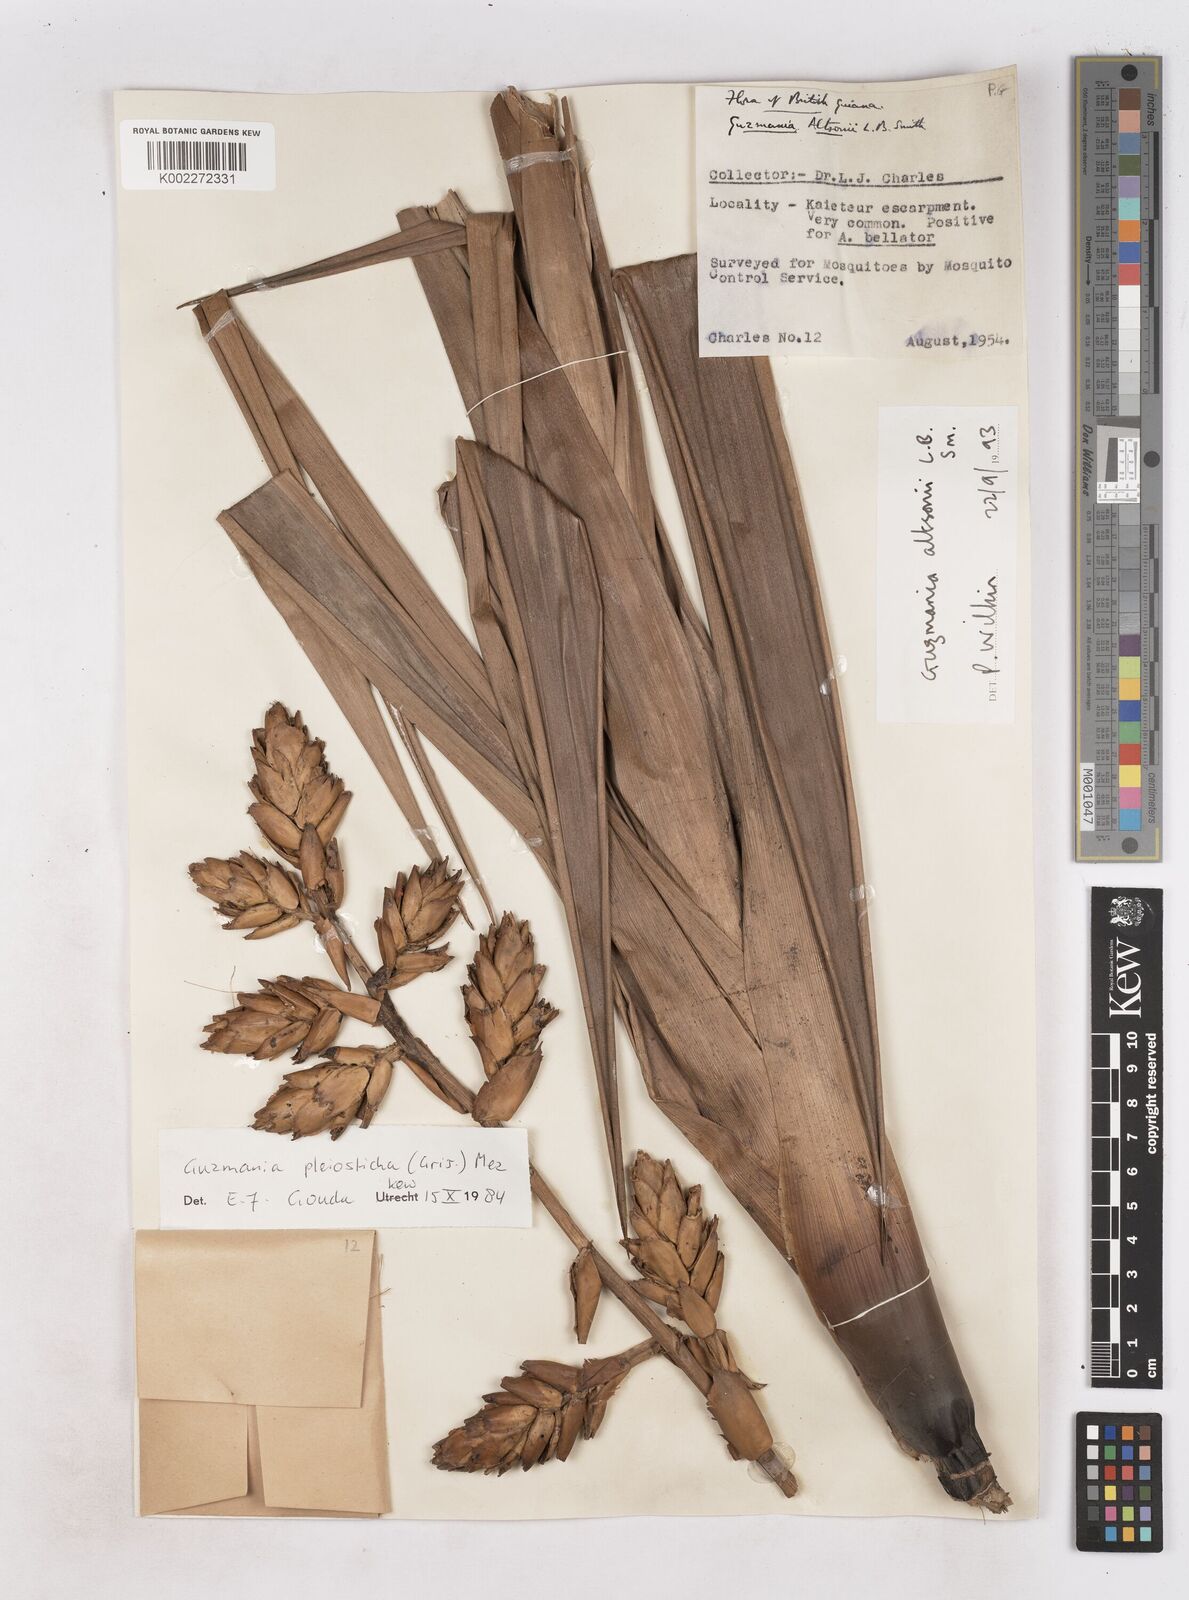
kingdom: Plantae
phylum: Tracheophyta
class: Liliopsida
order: Poales
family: Bromeliaceae
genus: Guzmania
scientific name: Guzmania altsonii
